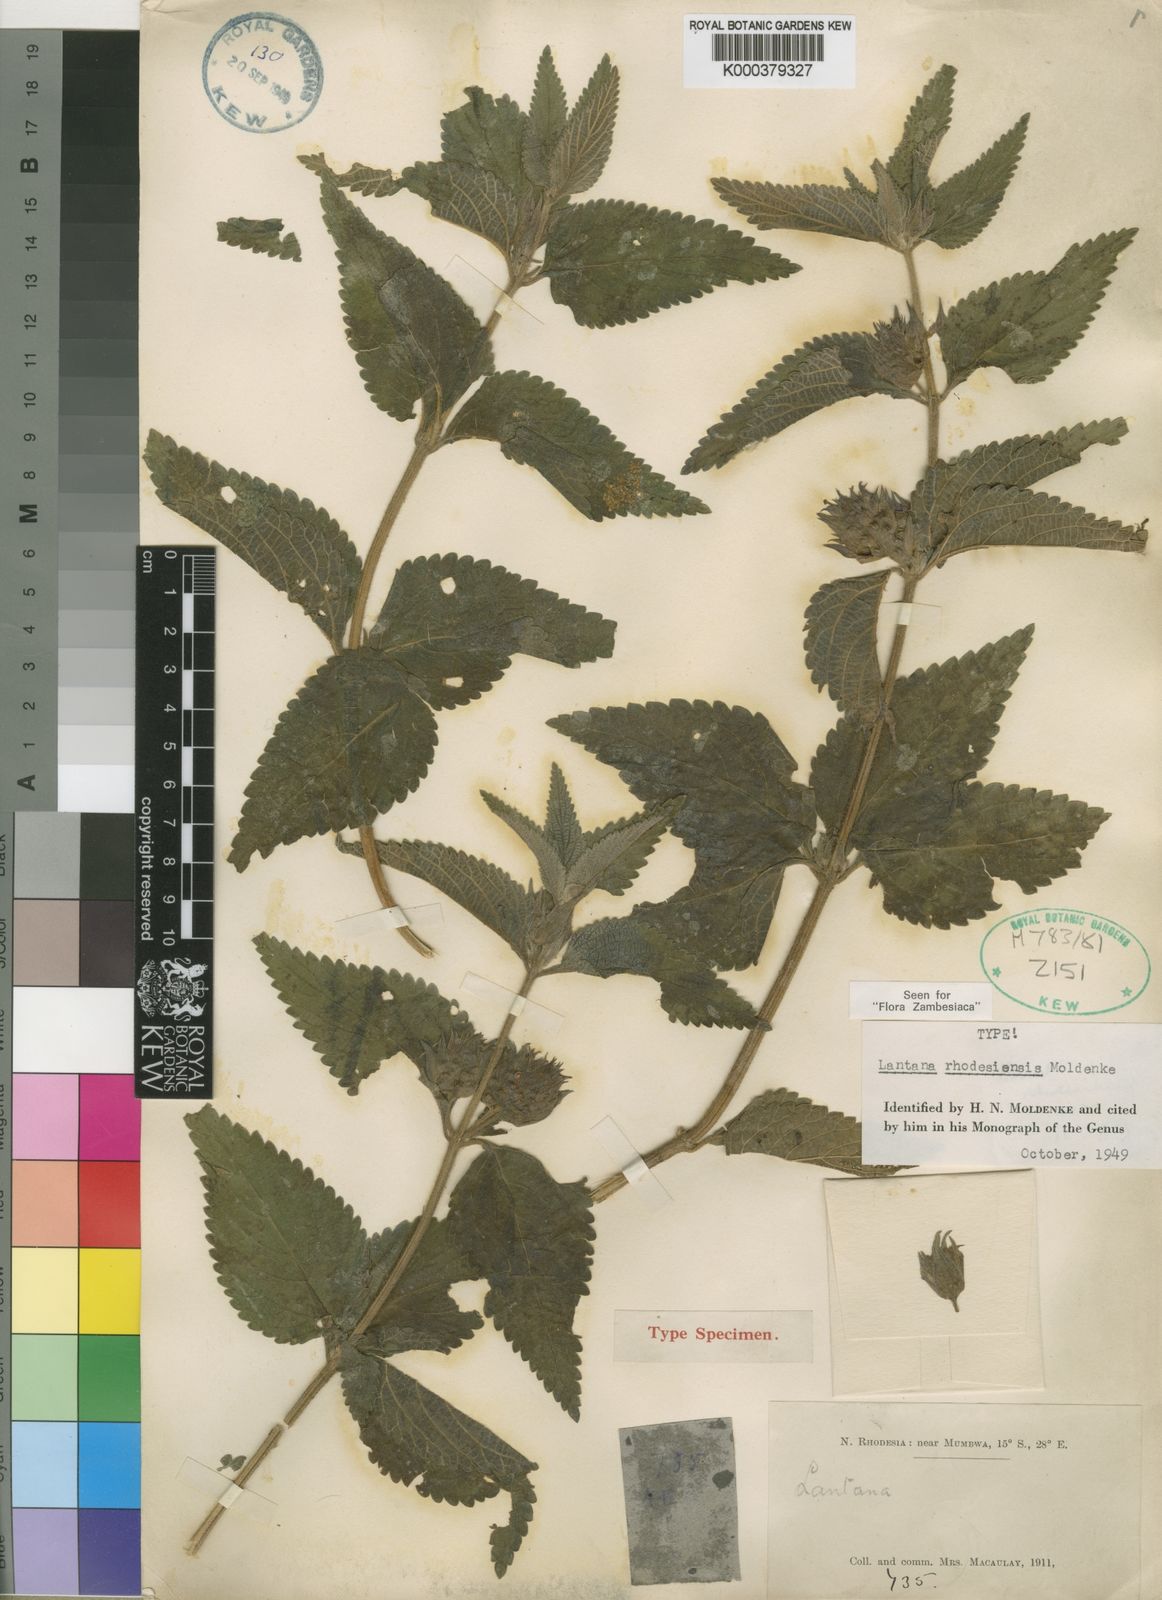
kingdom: Plantae
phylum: Tracheophyta
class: Magnoliopsida
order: Lamiales
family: Verbenaceae
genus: Lantana
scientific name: Lantana ukambensis
